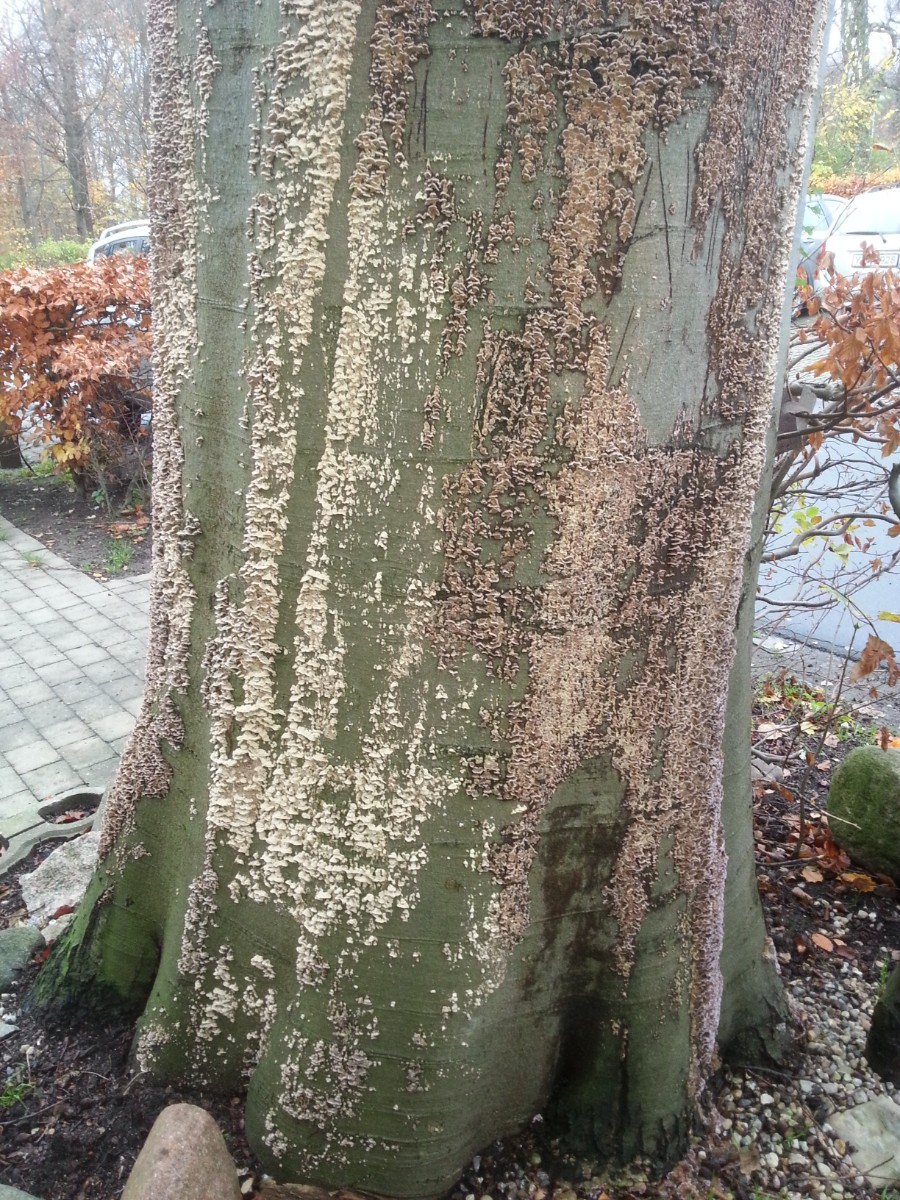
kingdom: Fungi
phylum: Basidiomycota
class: Agaricomycetes
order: Agaricales
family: Cyphellaceae
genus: Chondrostereum
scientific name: Chondrostereum purpureum
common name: purpurlædersvamp
